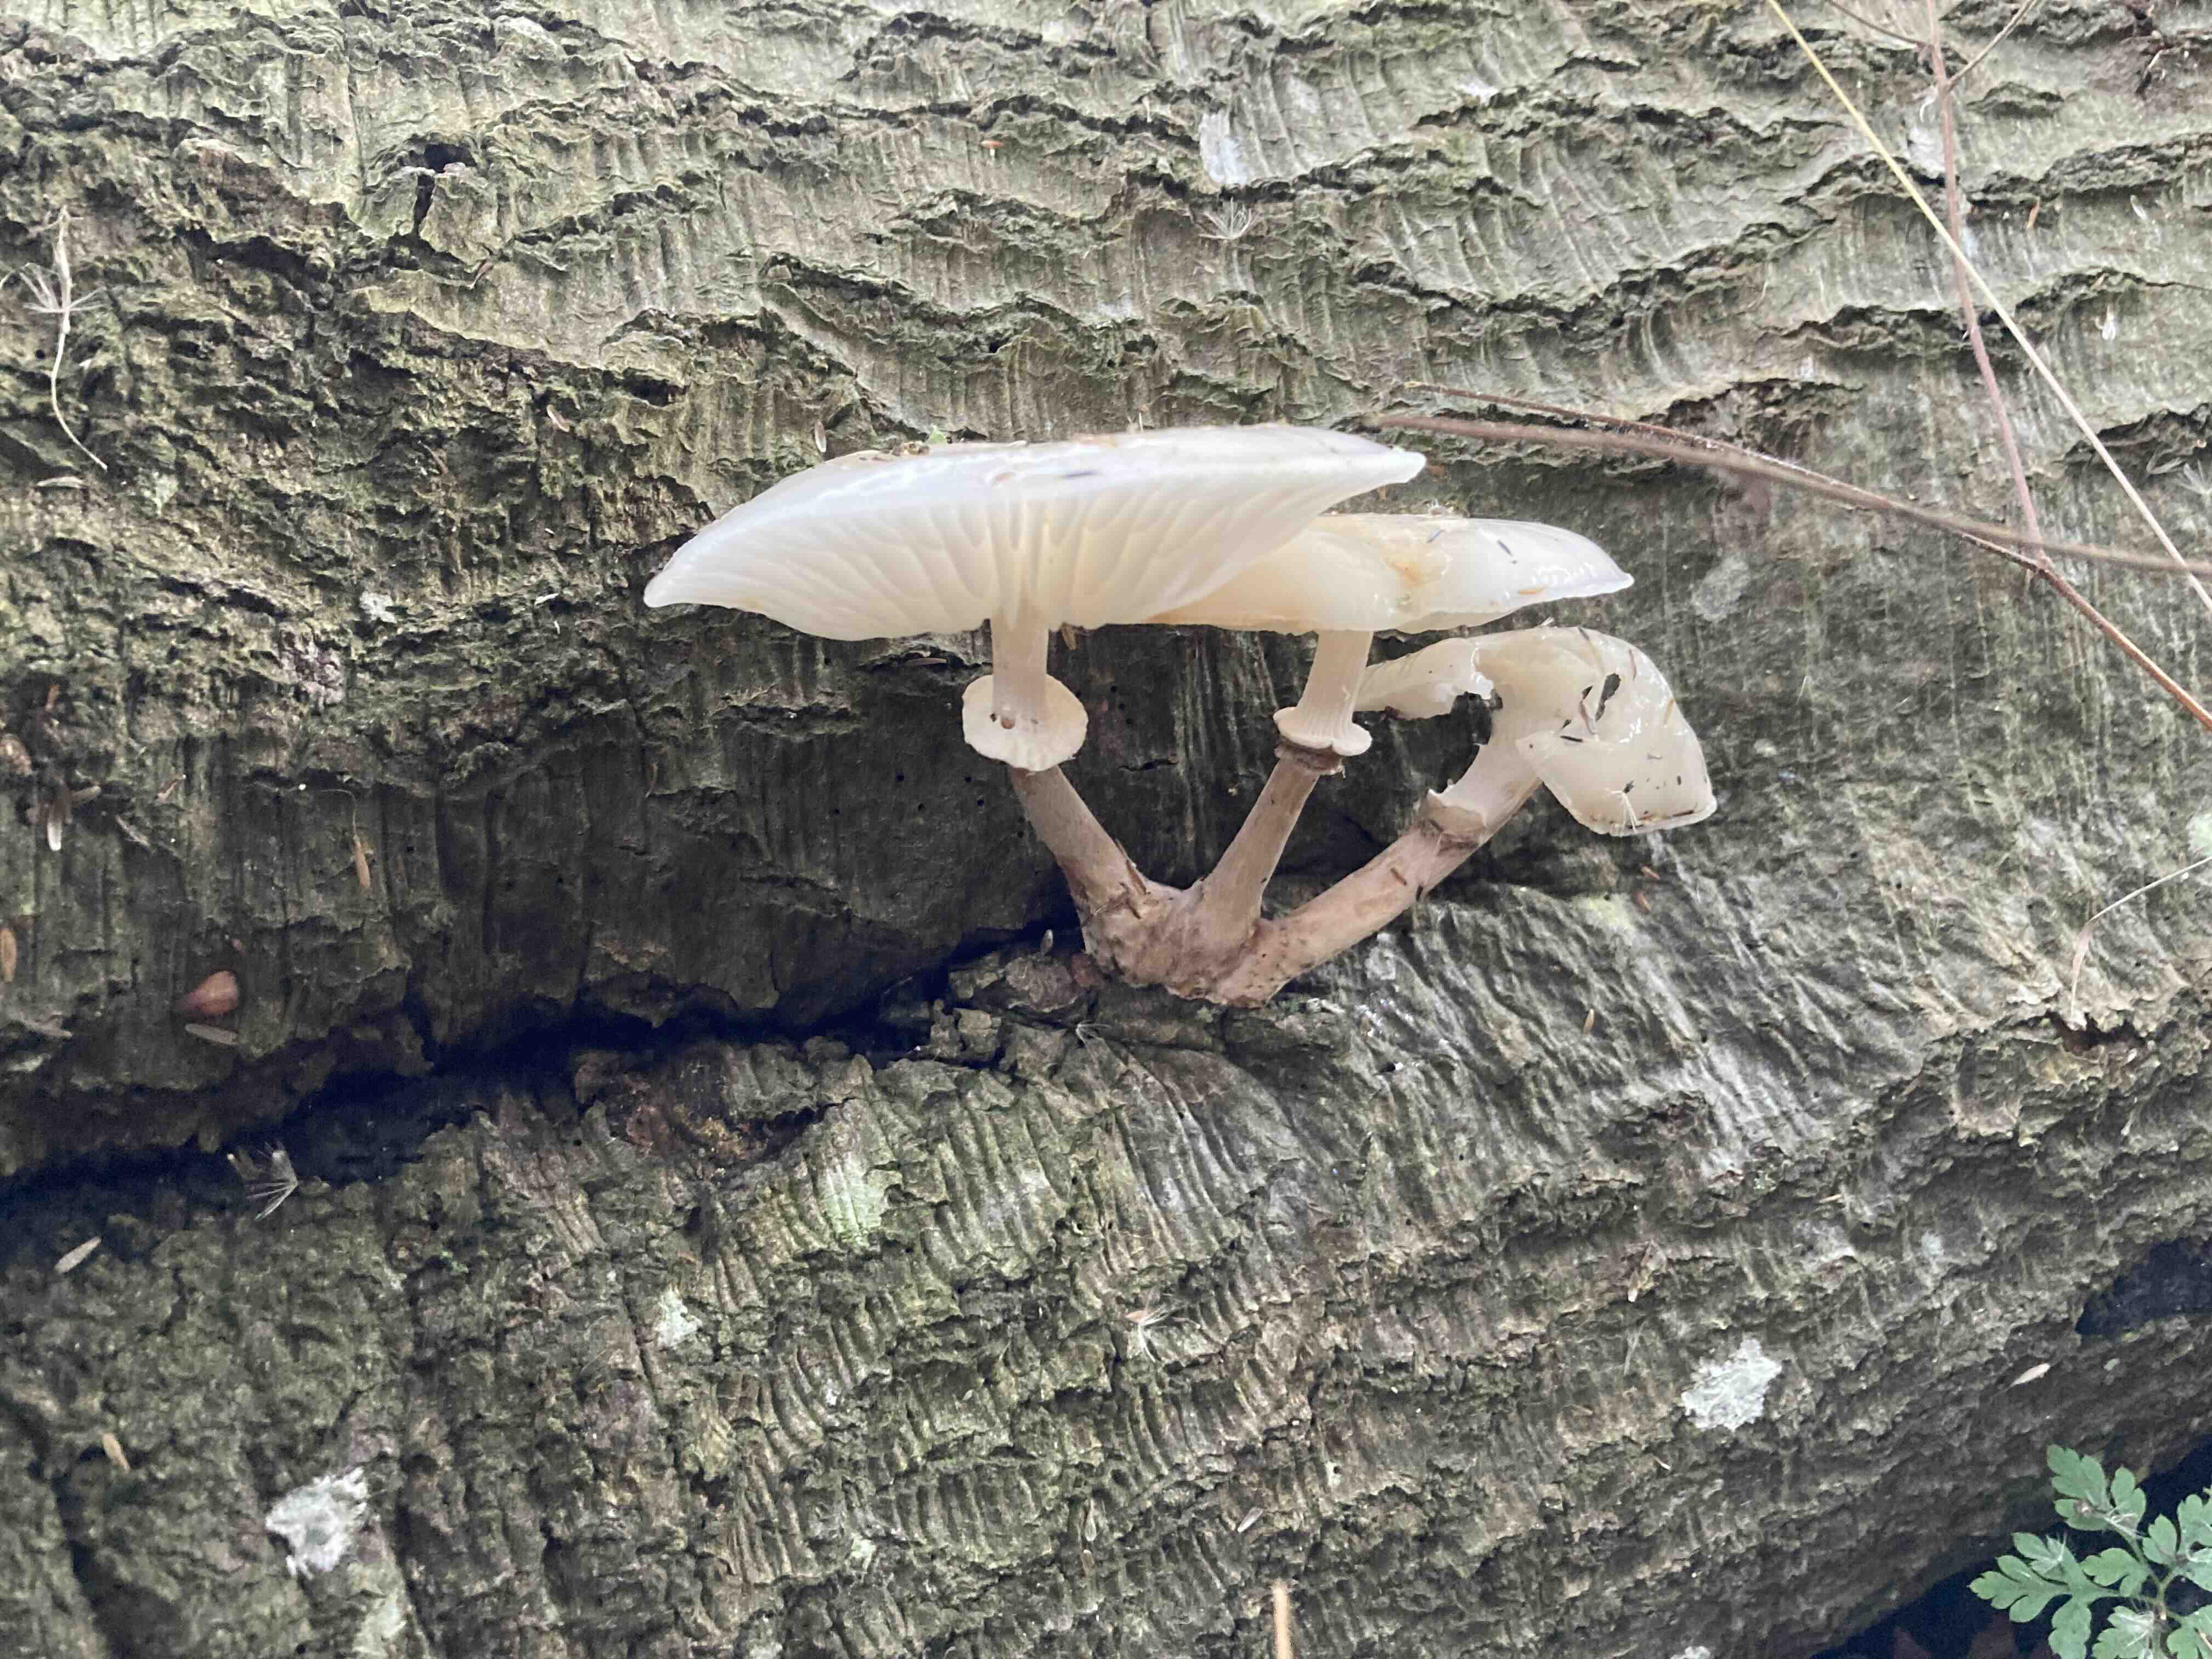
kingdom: Fungi
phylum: Basidiomycota
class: Agaricomycetes
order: Agaricales
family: Physalacriaceae
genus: Mucidula
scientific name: Mucidula mucida
